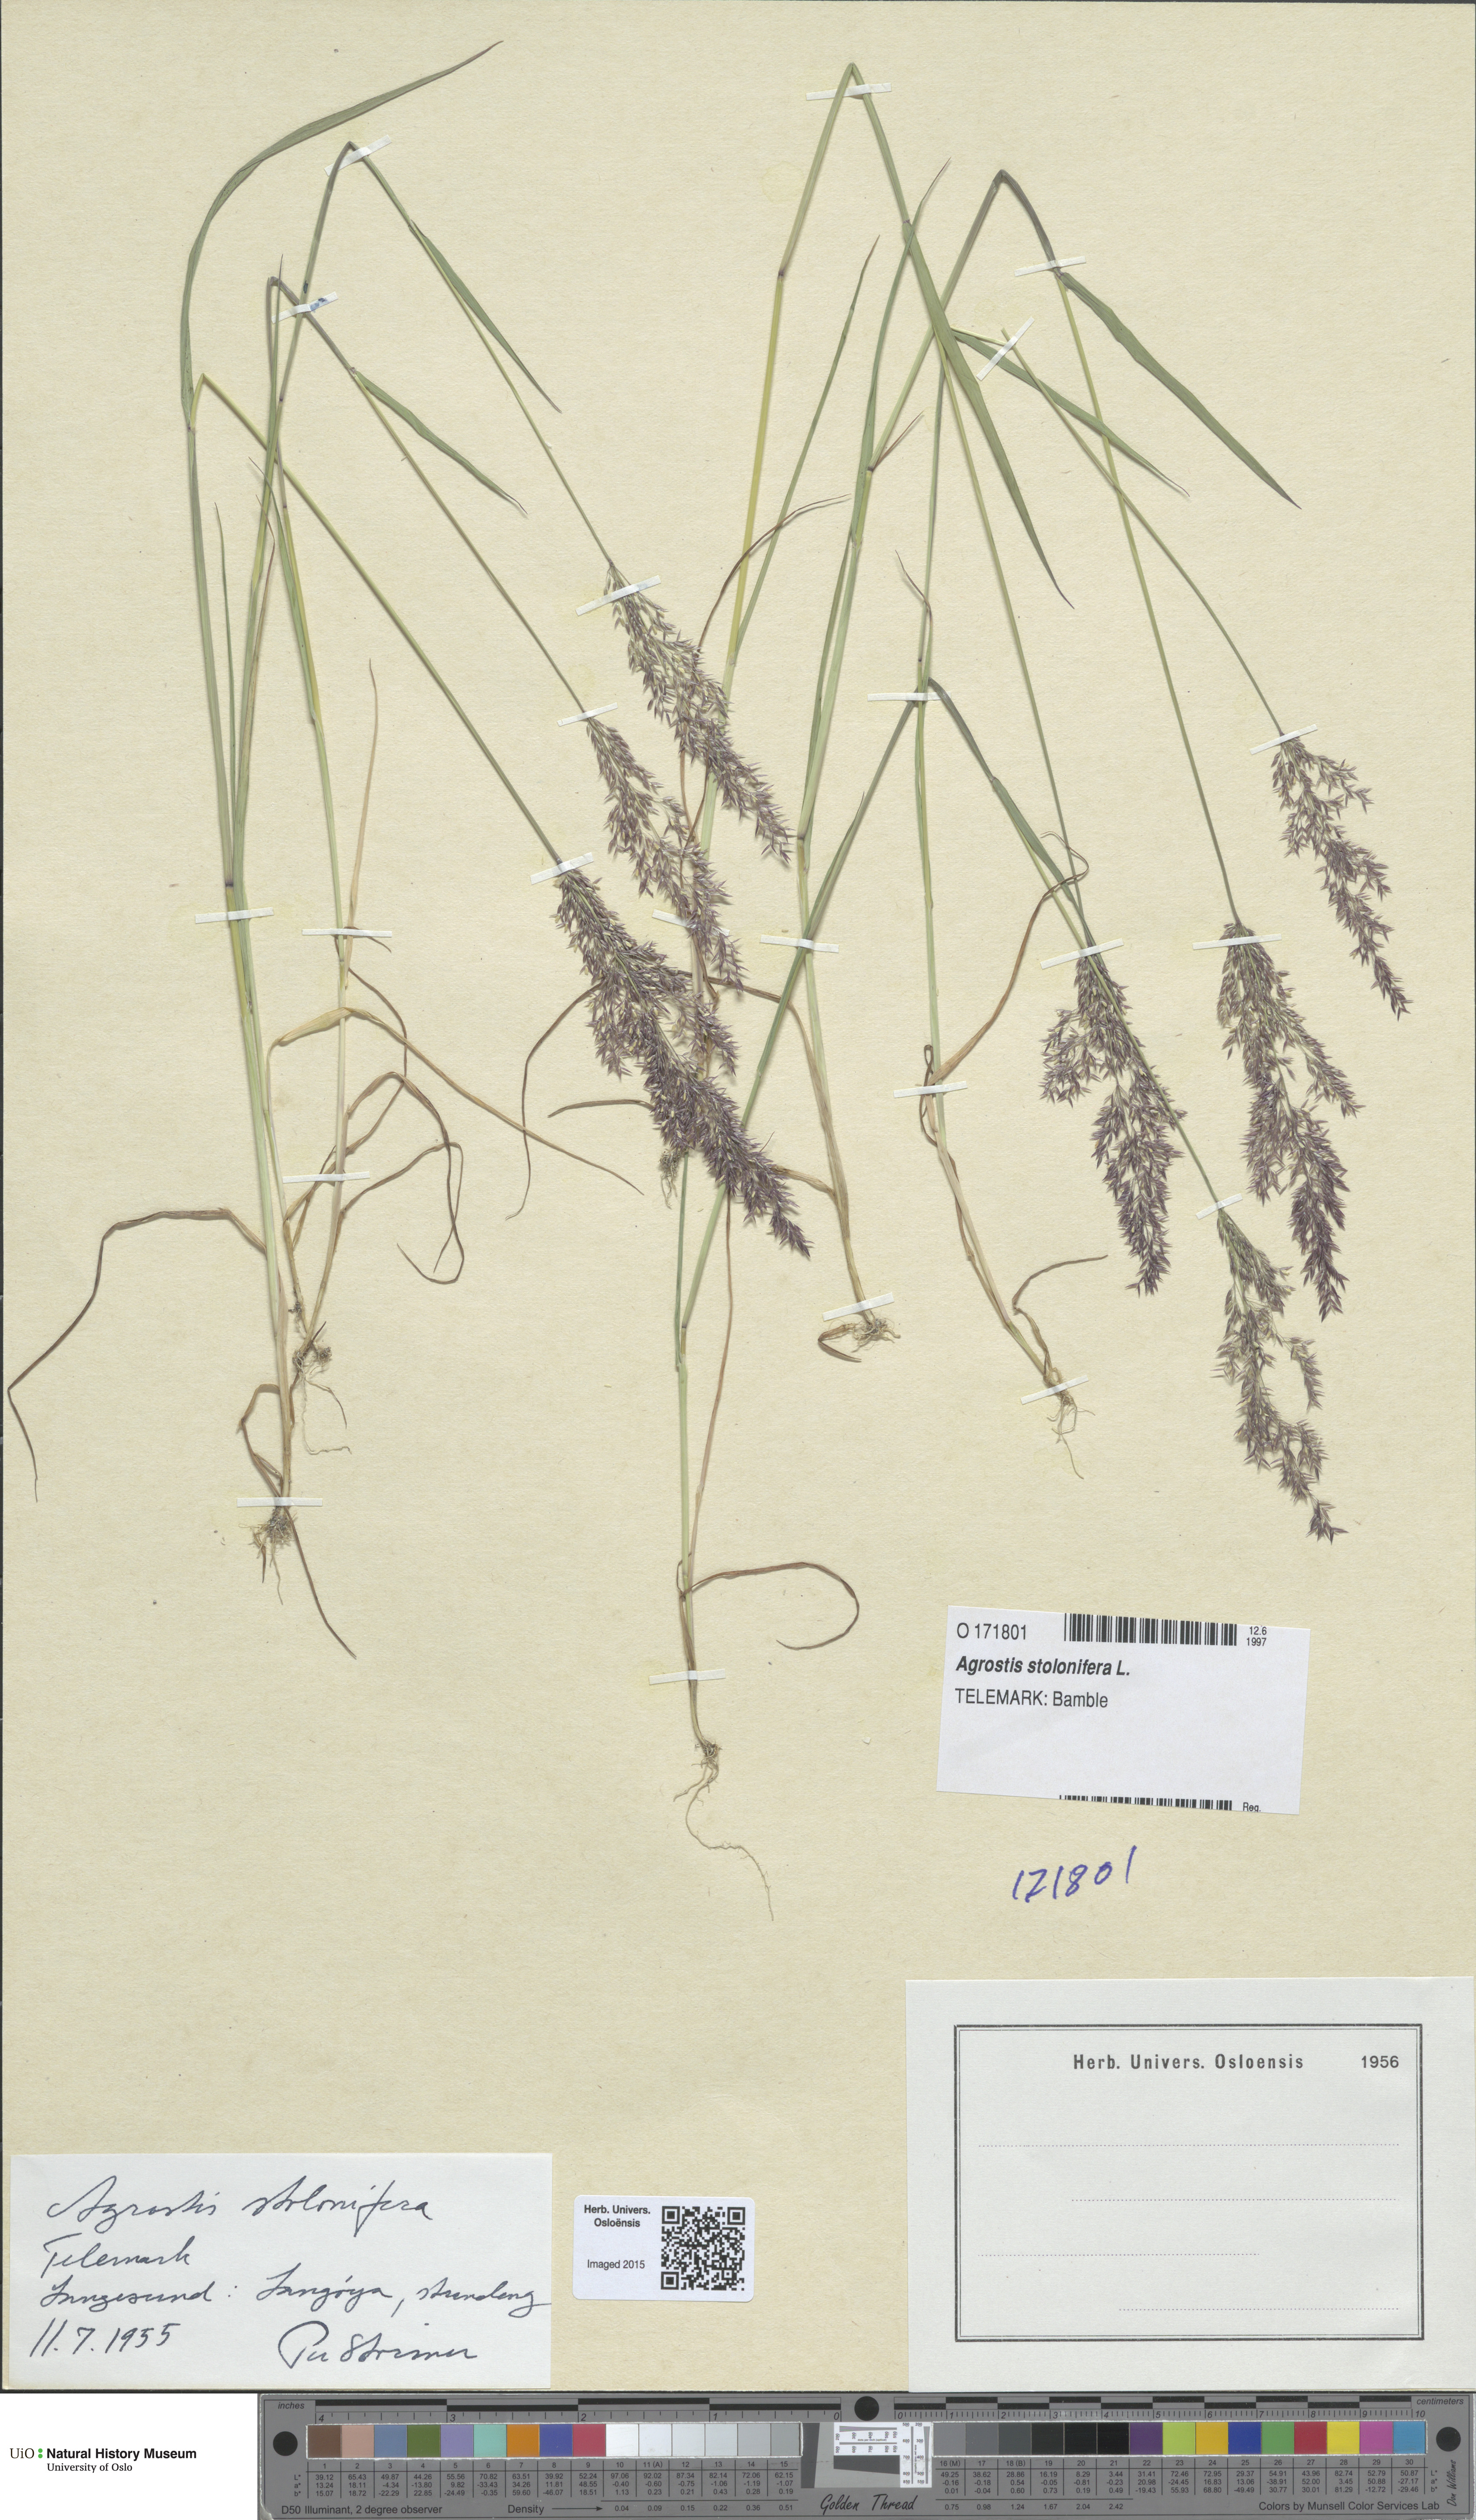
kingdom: Plantae
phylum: Tracheophyta
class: Liliopsida
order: Poales
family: Poaceae
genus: Agrostis
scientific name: Agrostis stolonifera
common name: Creeping bentgrass
